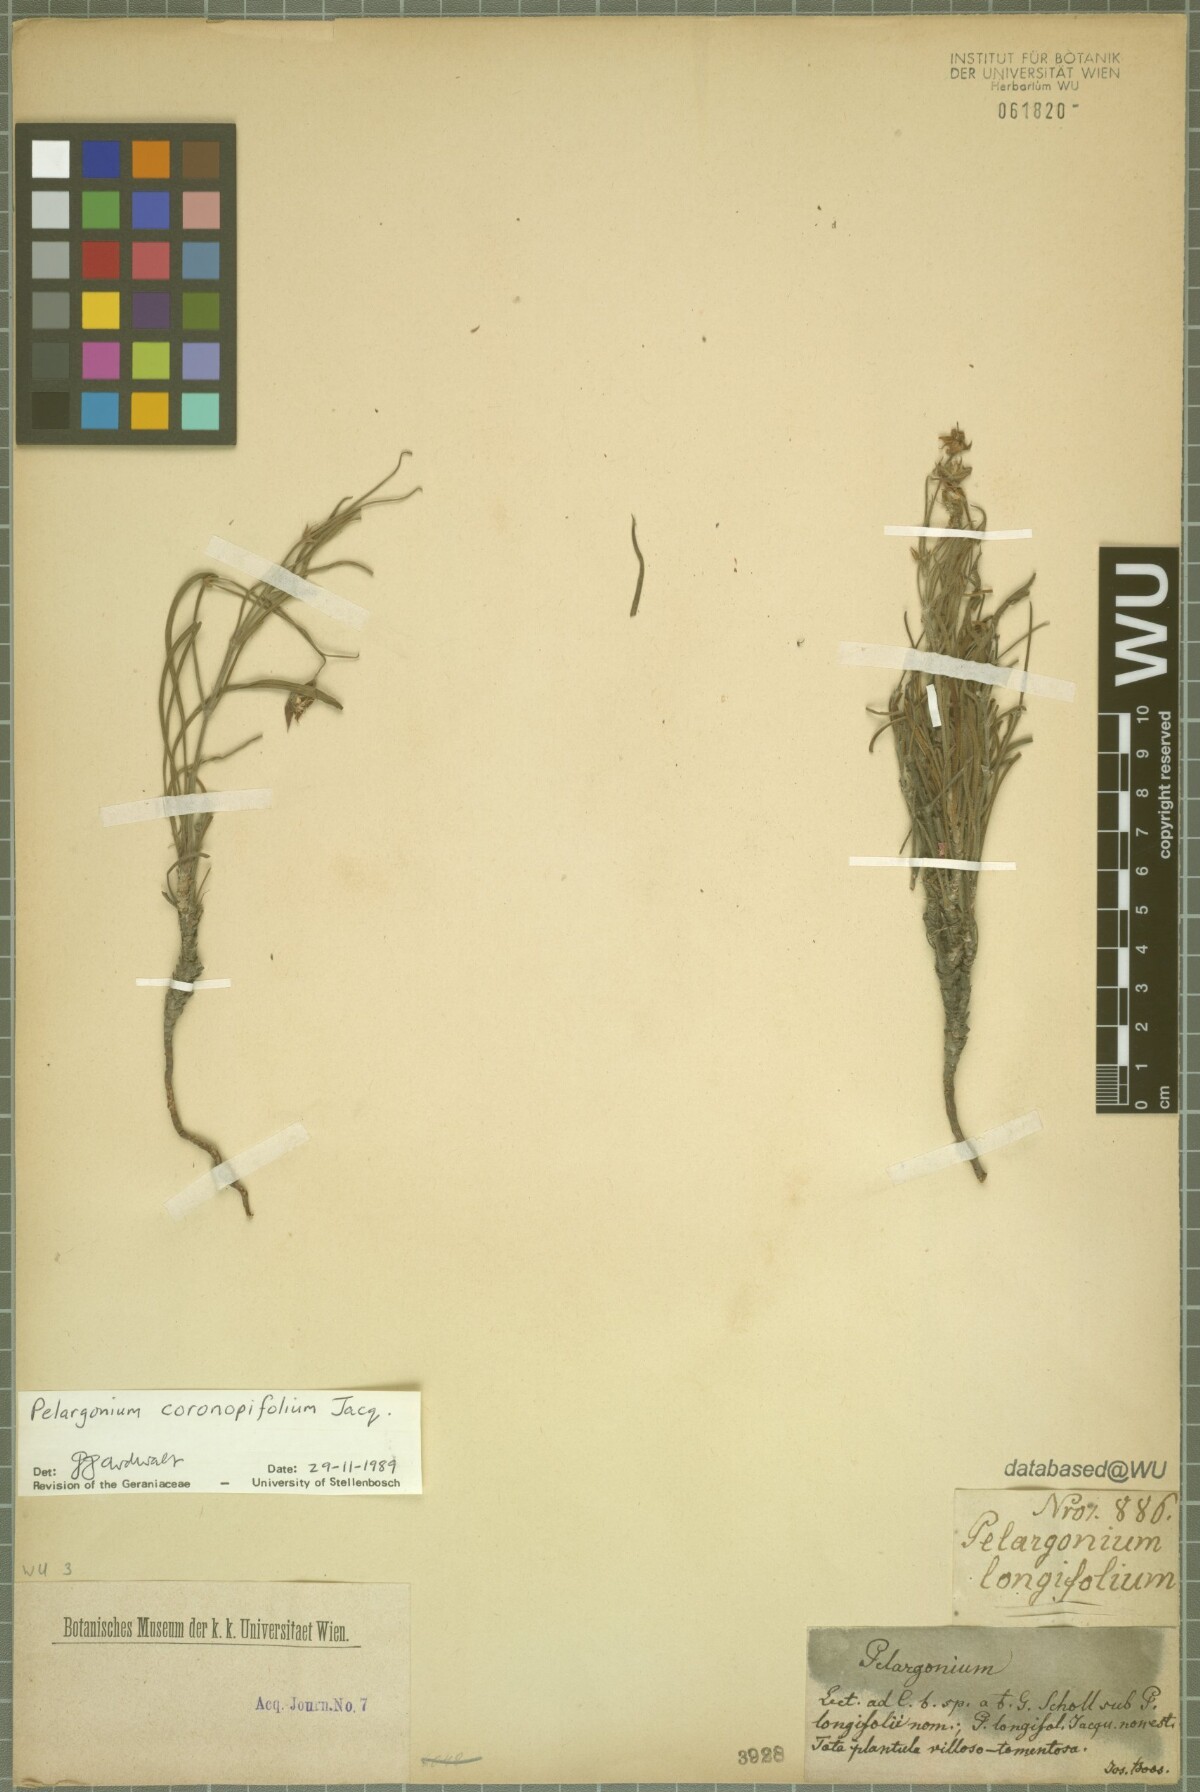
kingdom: Plantae
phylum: Tracheophyta
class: Magnoliopsida
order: Geraniales
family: Geraniaceae
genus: Pelargonium
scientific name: Pelargonium coronopifolium
